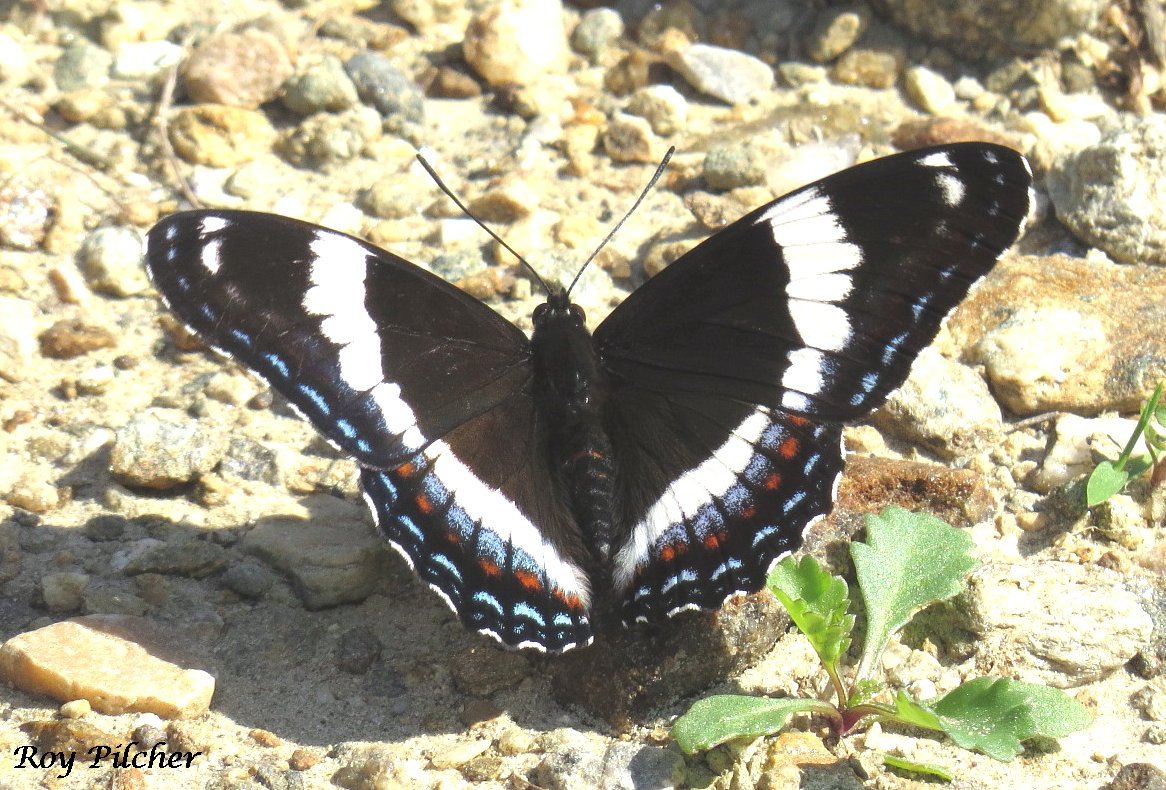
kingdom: Animalia
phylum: Arthropoda
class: Insecta
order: Lepidoptera
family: Nymphalidae
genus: Limenitis
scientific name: Limenitis arthemis
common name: Red-spotted Admiral
